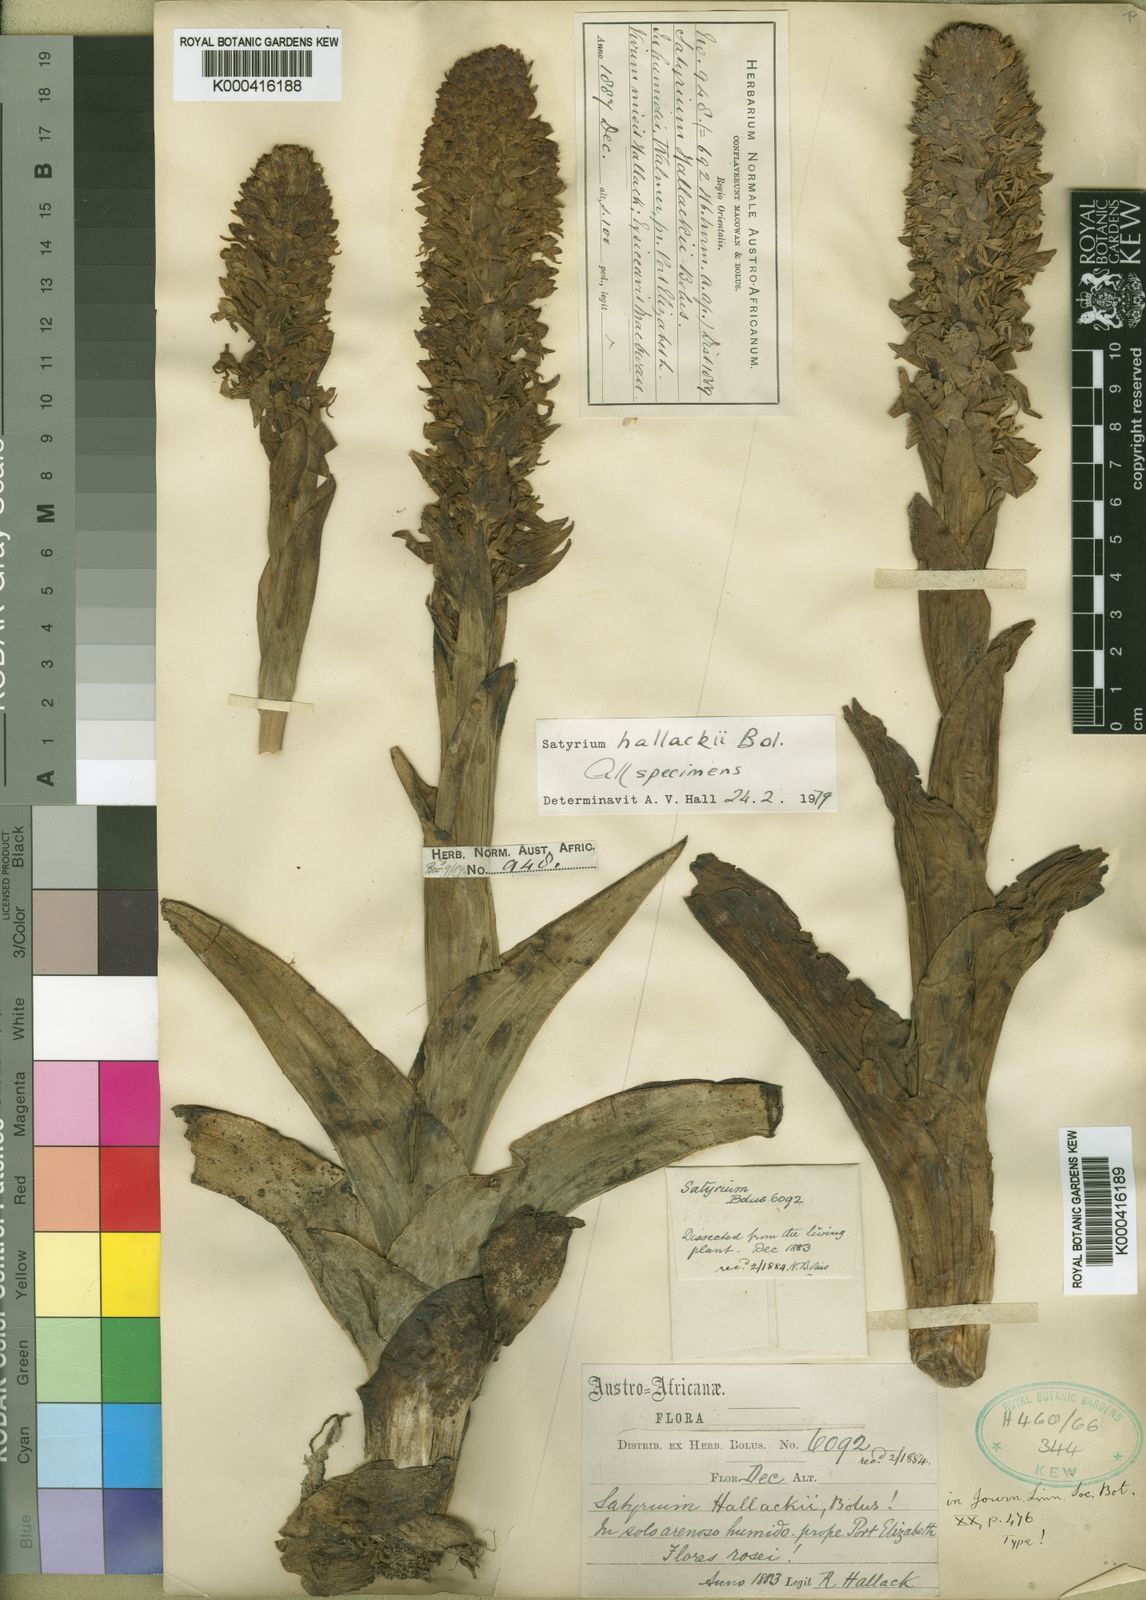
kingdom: Plantae
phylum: Tracheophyta
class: Liliopsida
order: Asparagales
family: Orchidaceae
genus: Satyrium
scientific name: Satyrium hallackii
